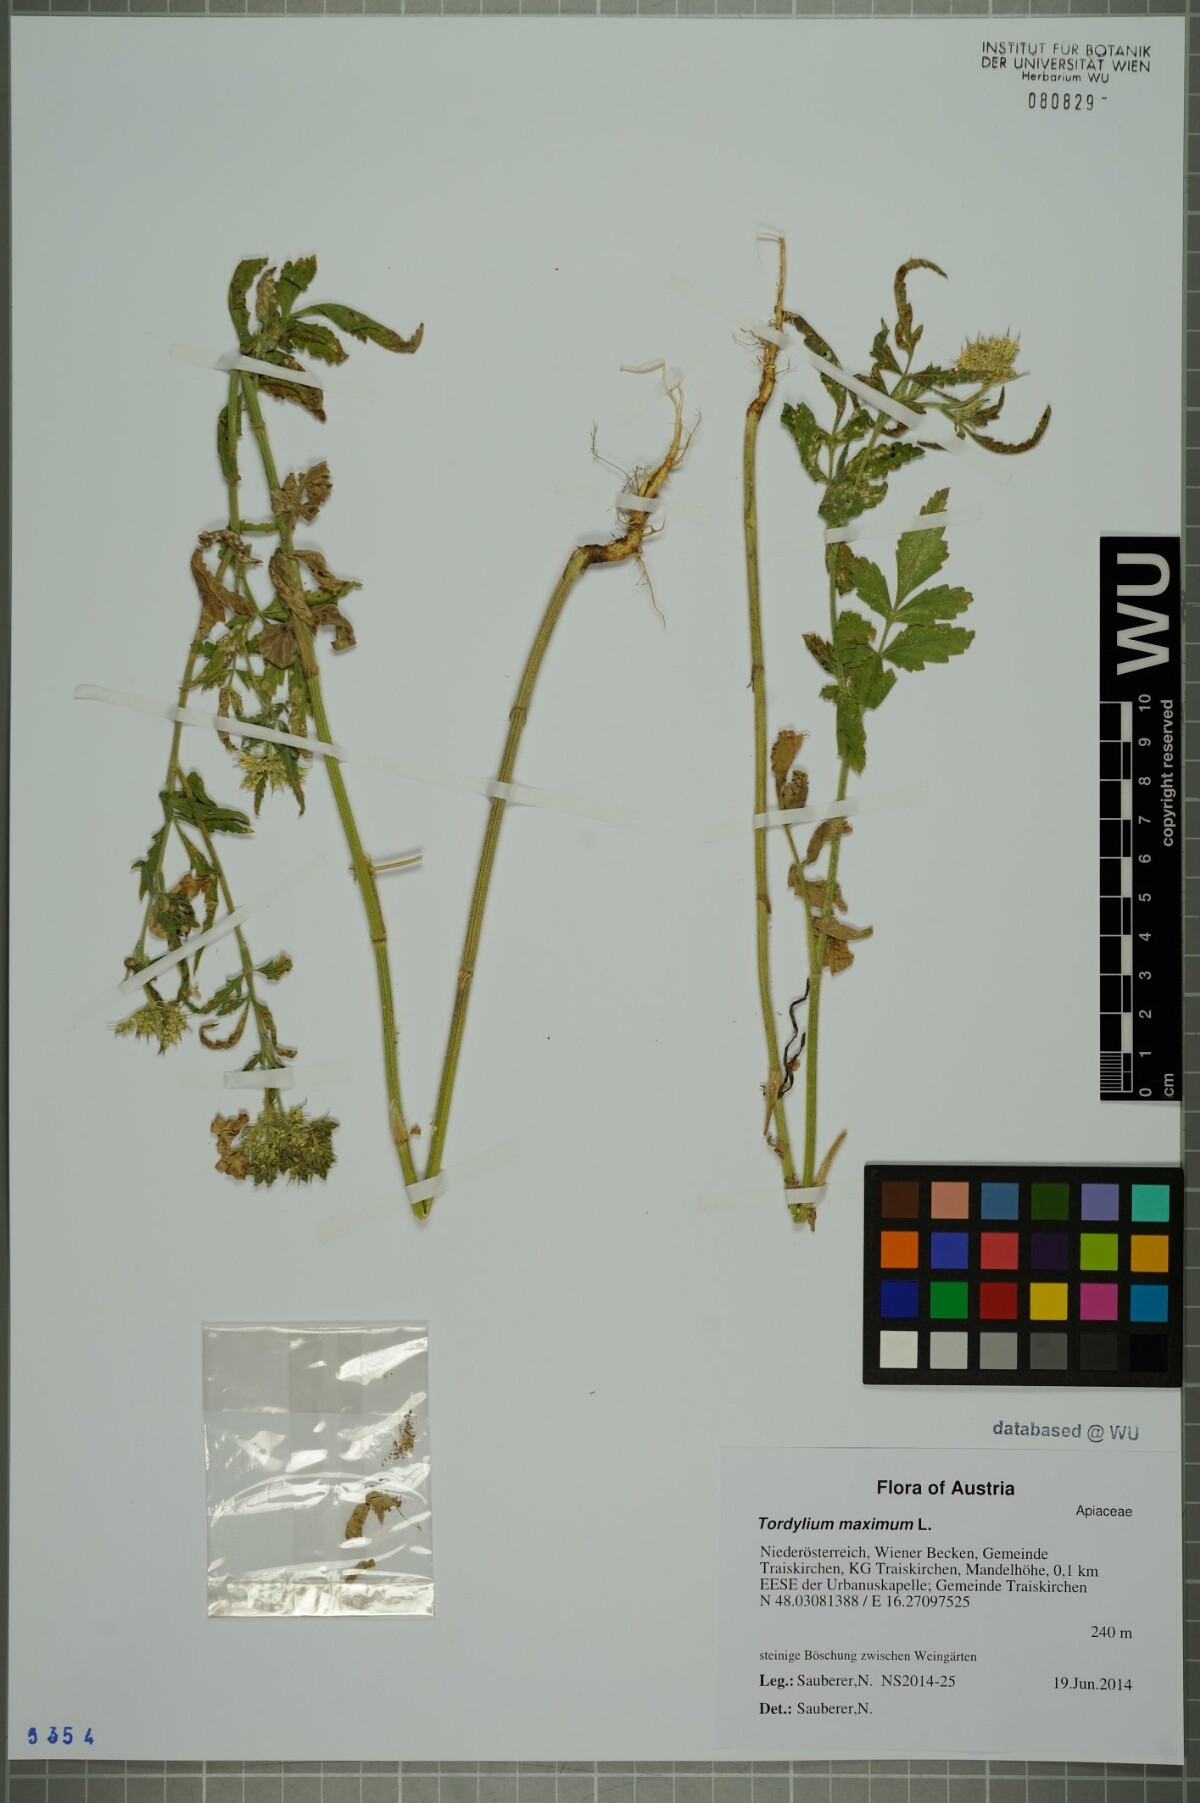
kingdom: Plantae
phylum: Tracheophyta
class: Magnoliopsida
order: Apiales
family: Apiaceae
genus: Tordylium
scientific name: Tordylium maximum
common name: Hartwort
